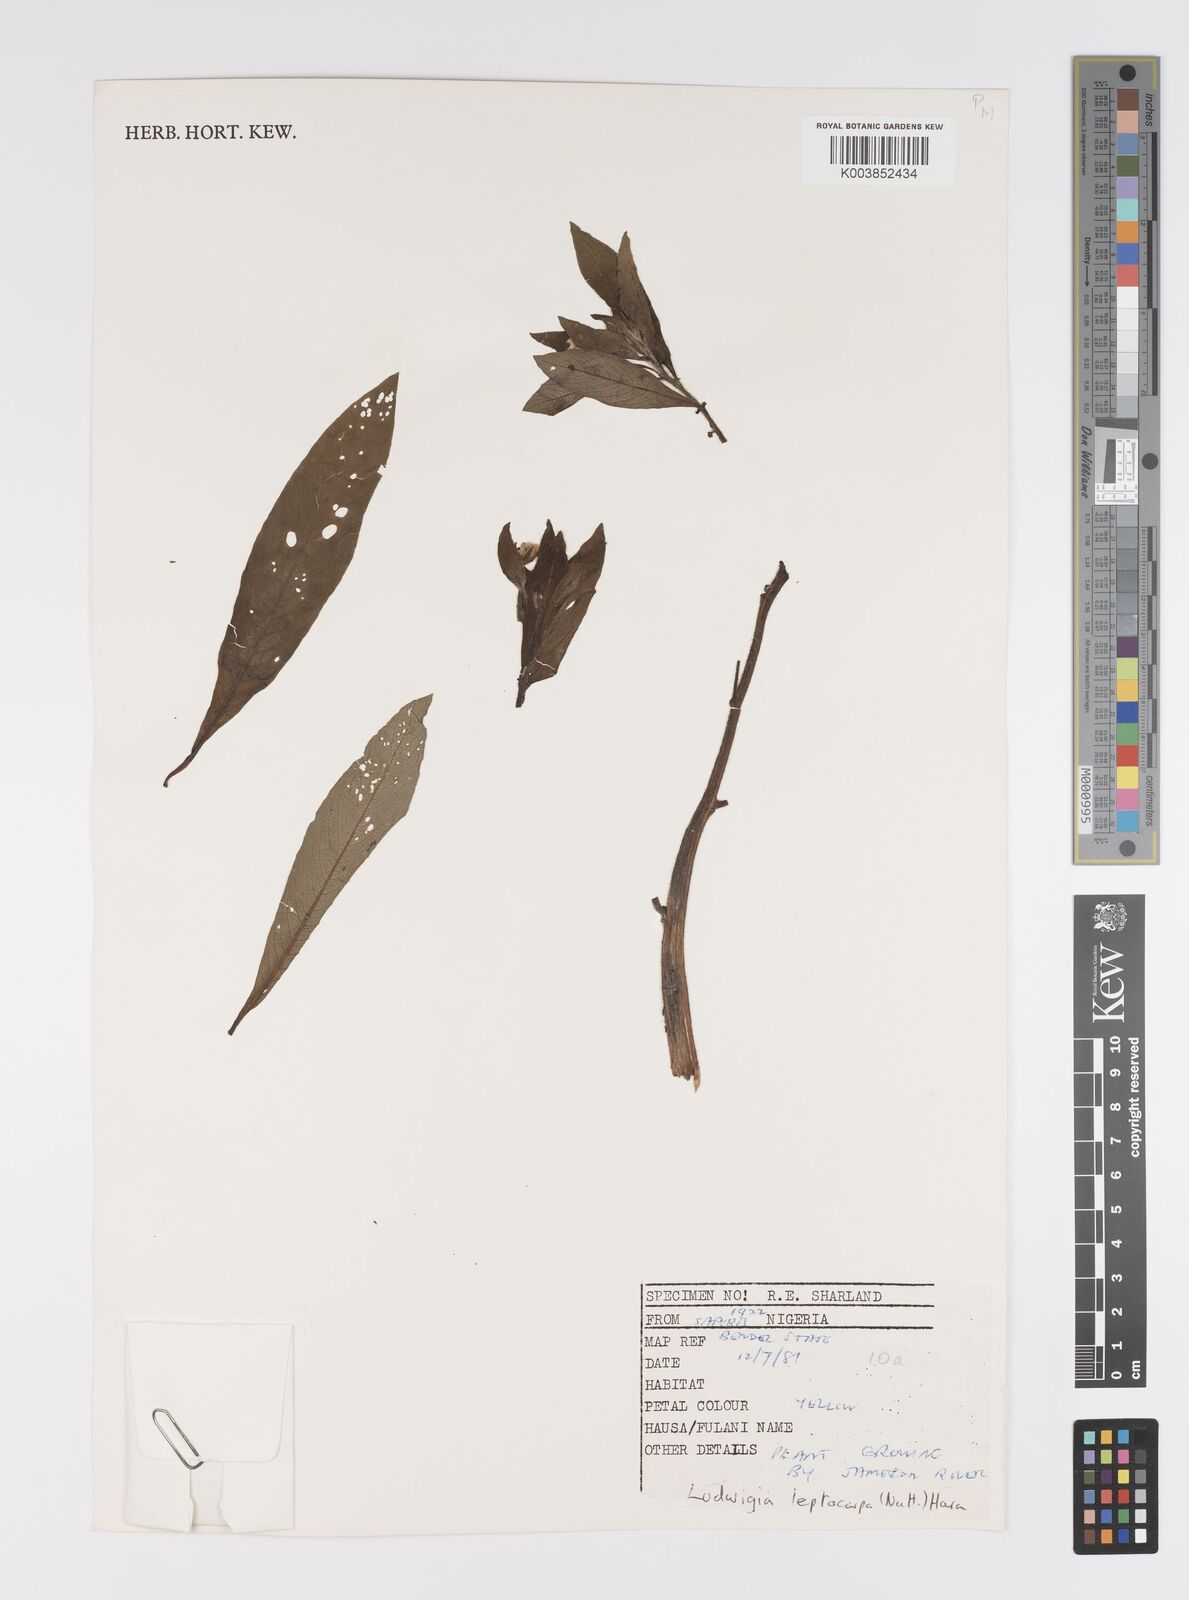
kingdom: Plantae
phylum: Tracheophyta
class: Magnoliopsida
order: Myrtales
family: Onagraceae
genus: Ludwigia
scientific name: Ludwigia leptocarpa
